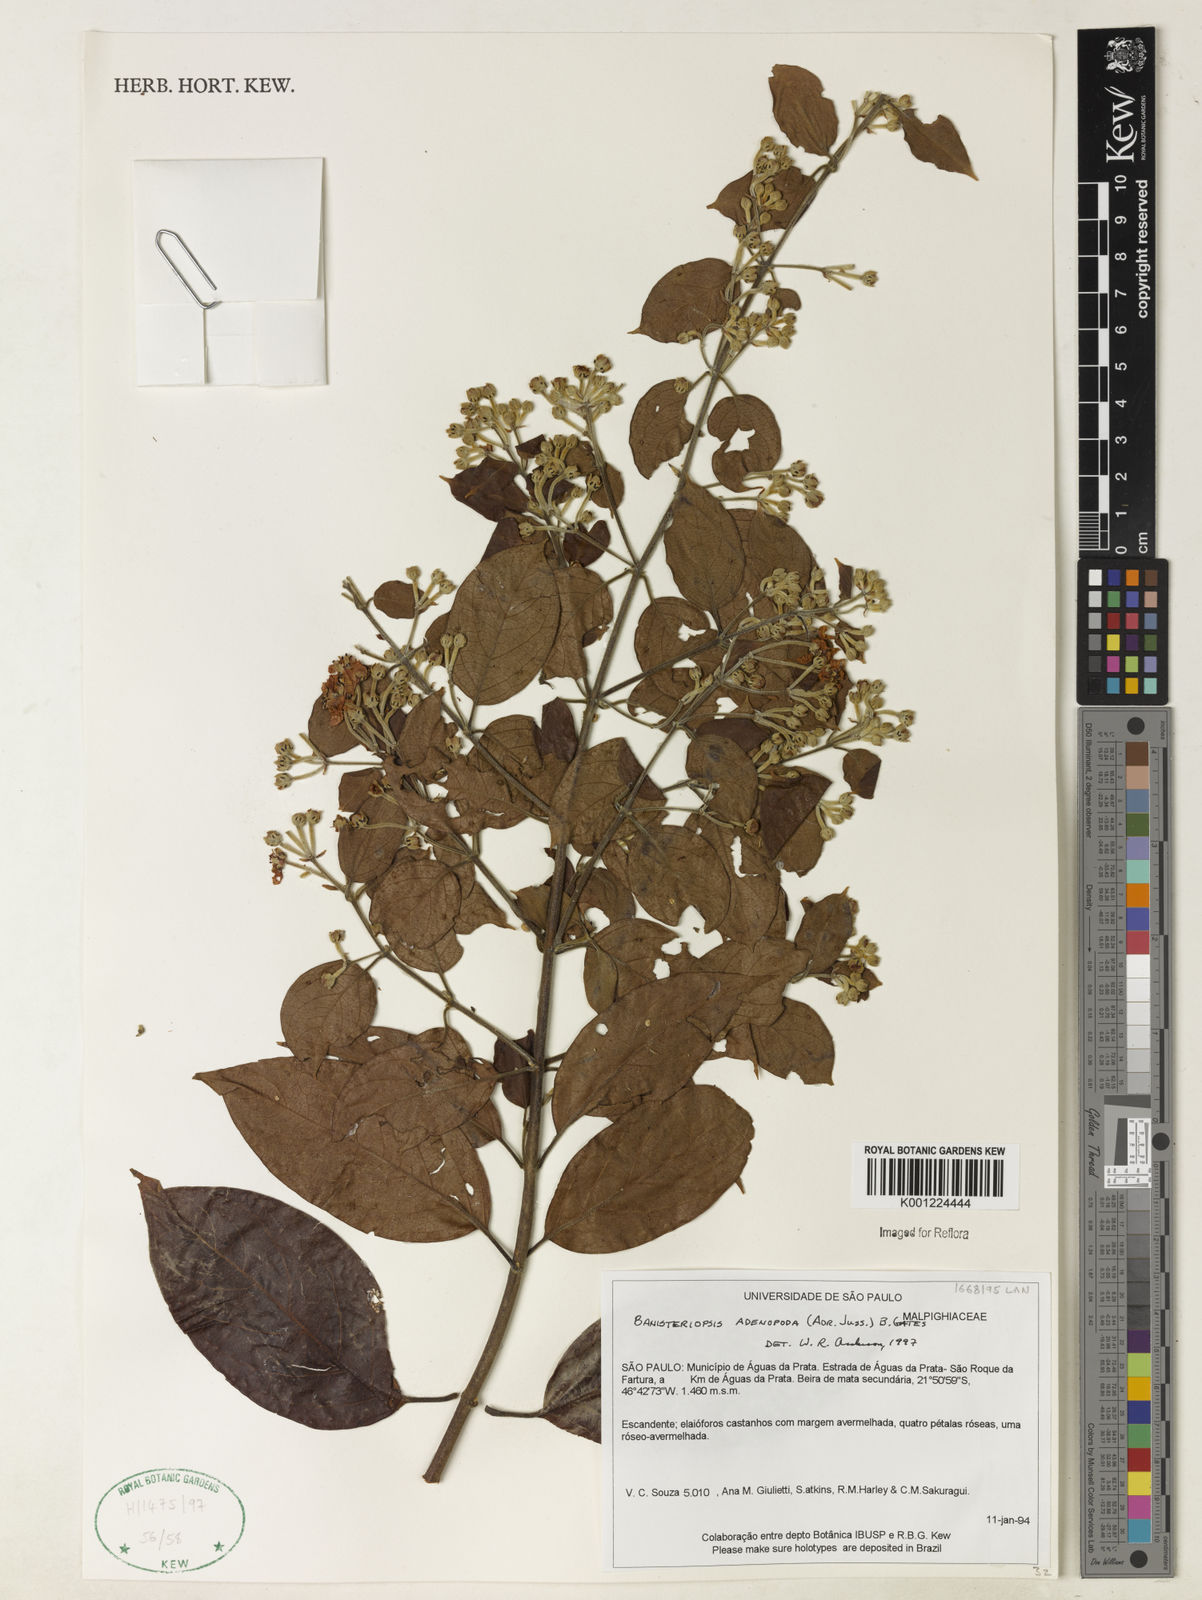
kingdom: Plantae
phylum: Tracheophyta
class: Magnoliopsida
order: Malpighiales
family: Malpighiaceae
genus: Banisteriopsis
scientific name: Banisteriopsis adenopoda
